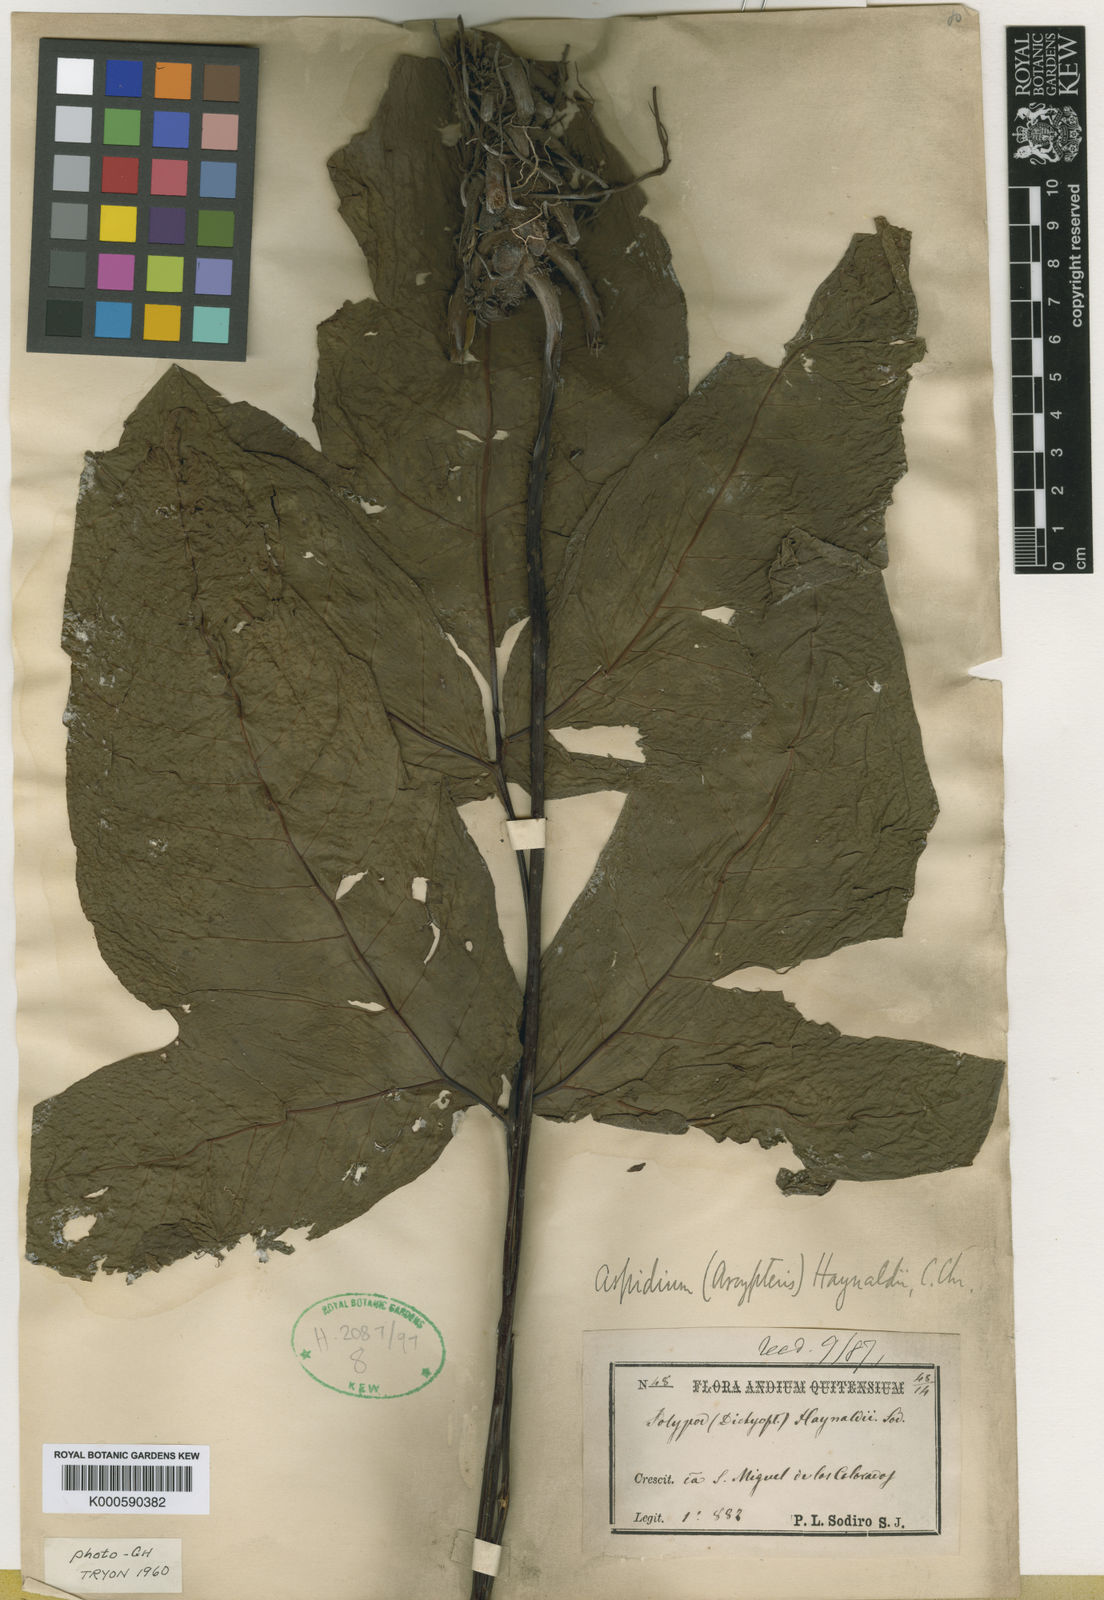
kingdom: Plantae
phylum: Tracheophyta
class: Polypodiopsida
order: Polypodiales
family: Tectariaceae
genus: Tectaria
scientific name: Tectaria antioquiana
